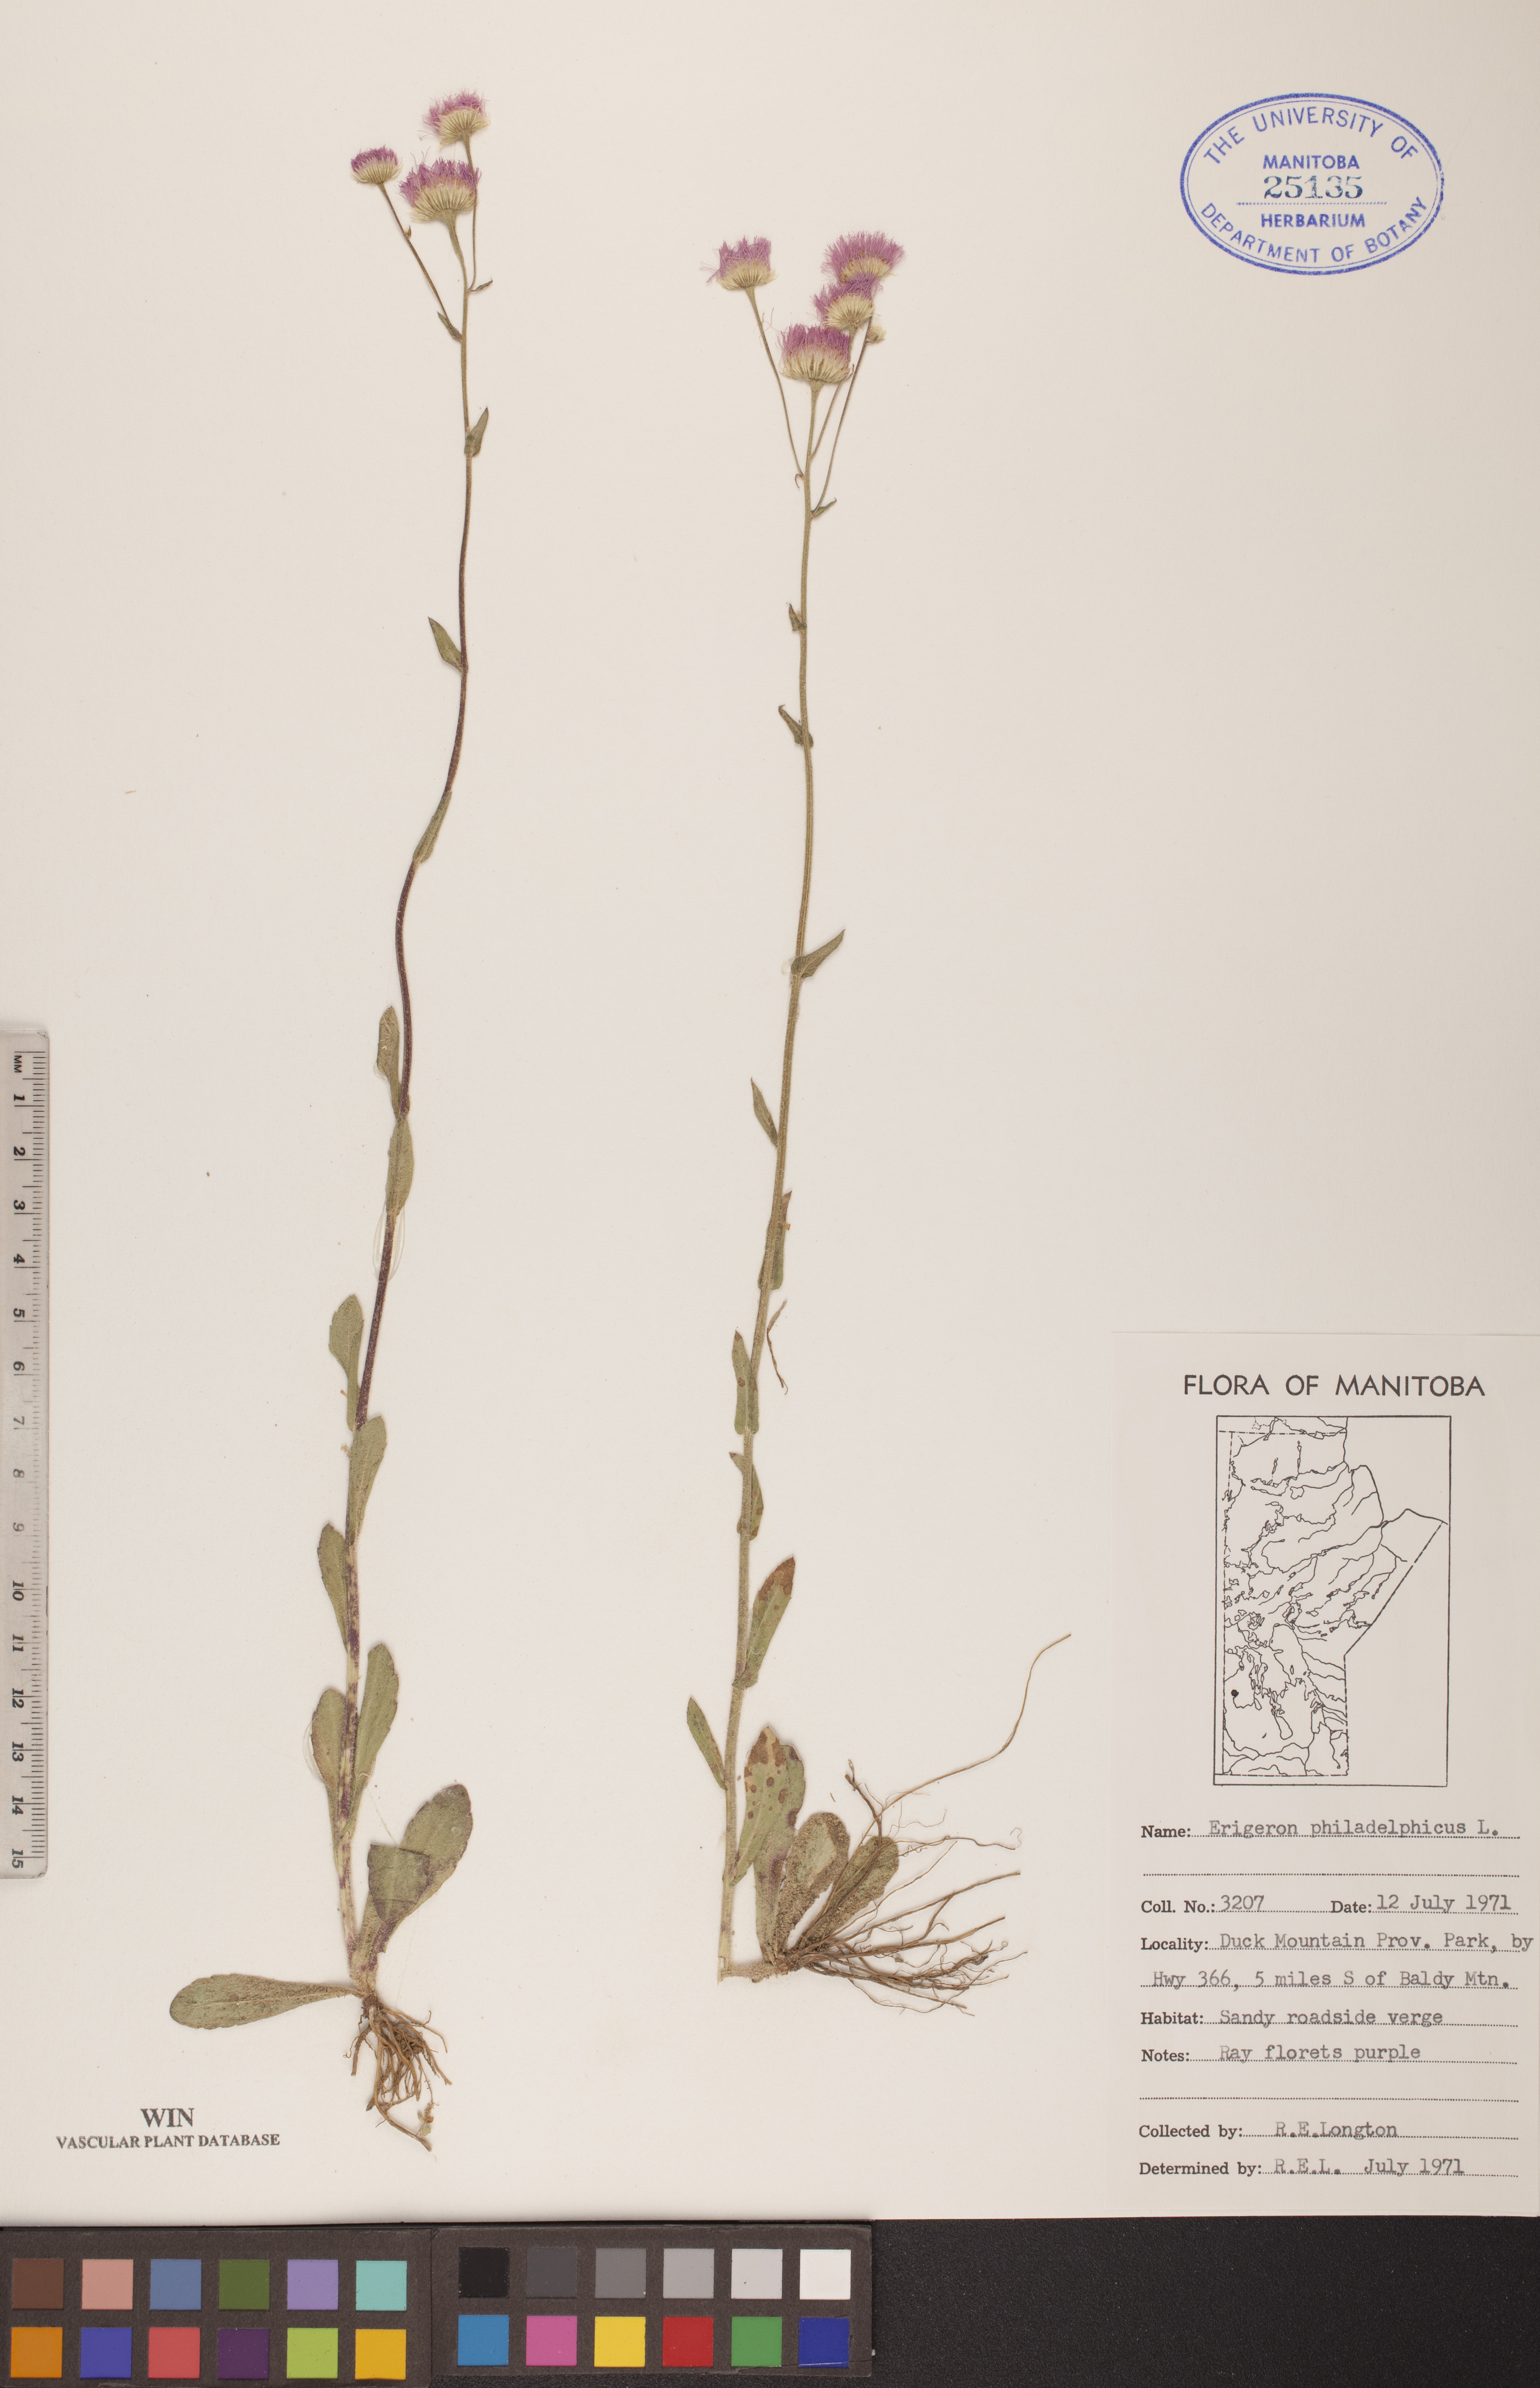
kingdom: Plantae
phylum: Tracheophyta
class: Magnoliopsida
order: Asterales
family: Asteraceae
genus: Erigeron
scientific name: Erigeron philadelphicus
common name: Robin's-plantain
